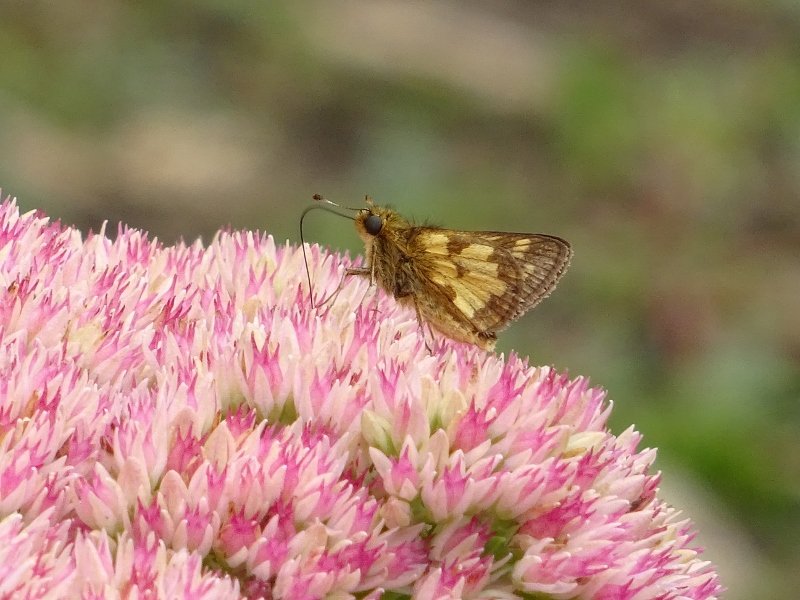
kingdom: Animalia
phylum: Arthropoda
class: Insecta
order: Lepidoptera
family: Hesperiidae
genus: Polites
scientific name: Polites coras
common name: Peck's Skipper
